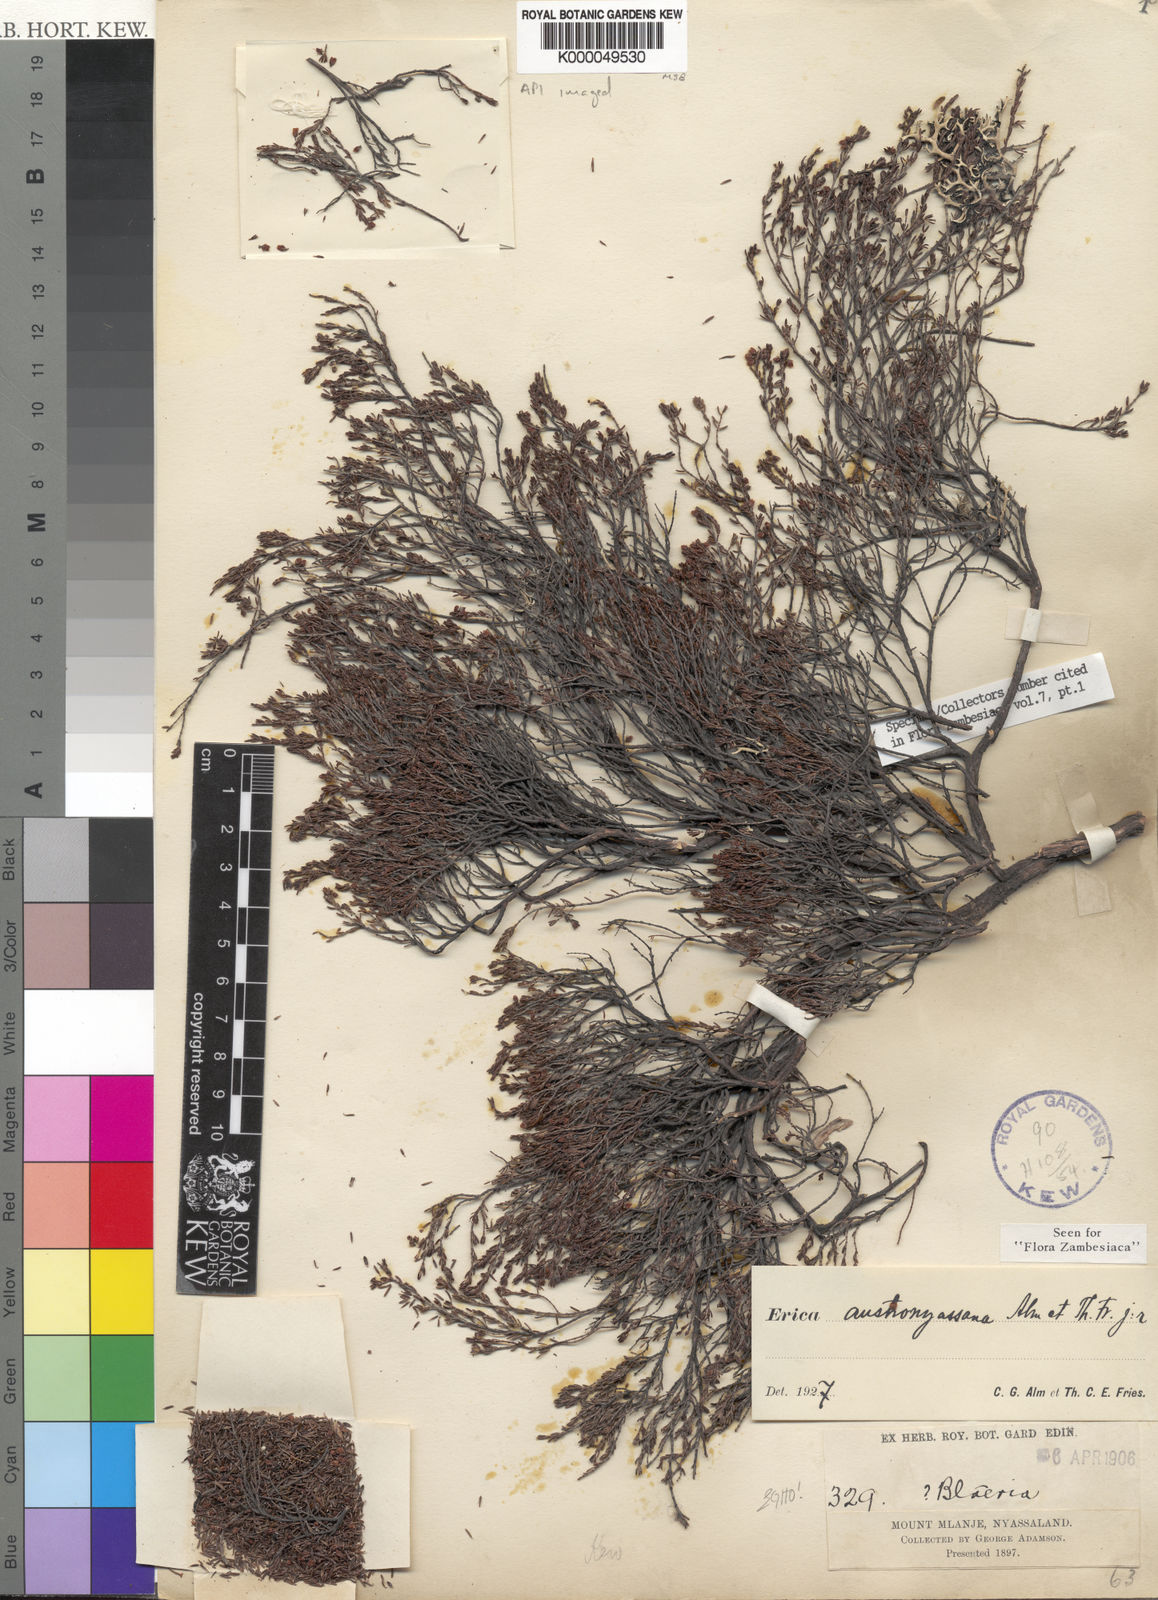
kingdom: Plantae
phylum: Tracheophyta
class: Magnoliopsida
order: Ericales
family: Ericaceae
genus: Erica
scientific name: Erica austronyassana
